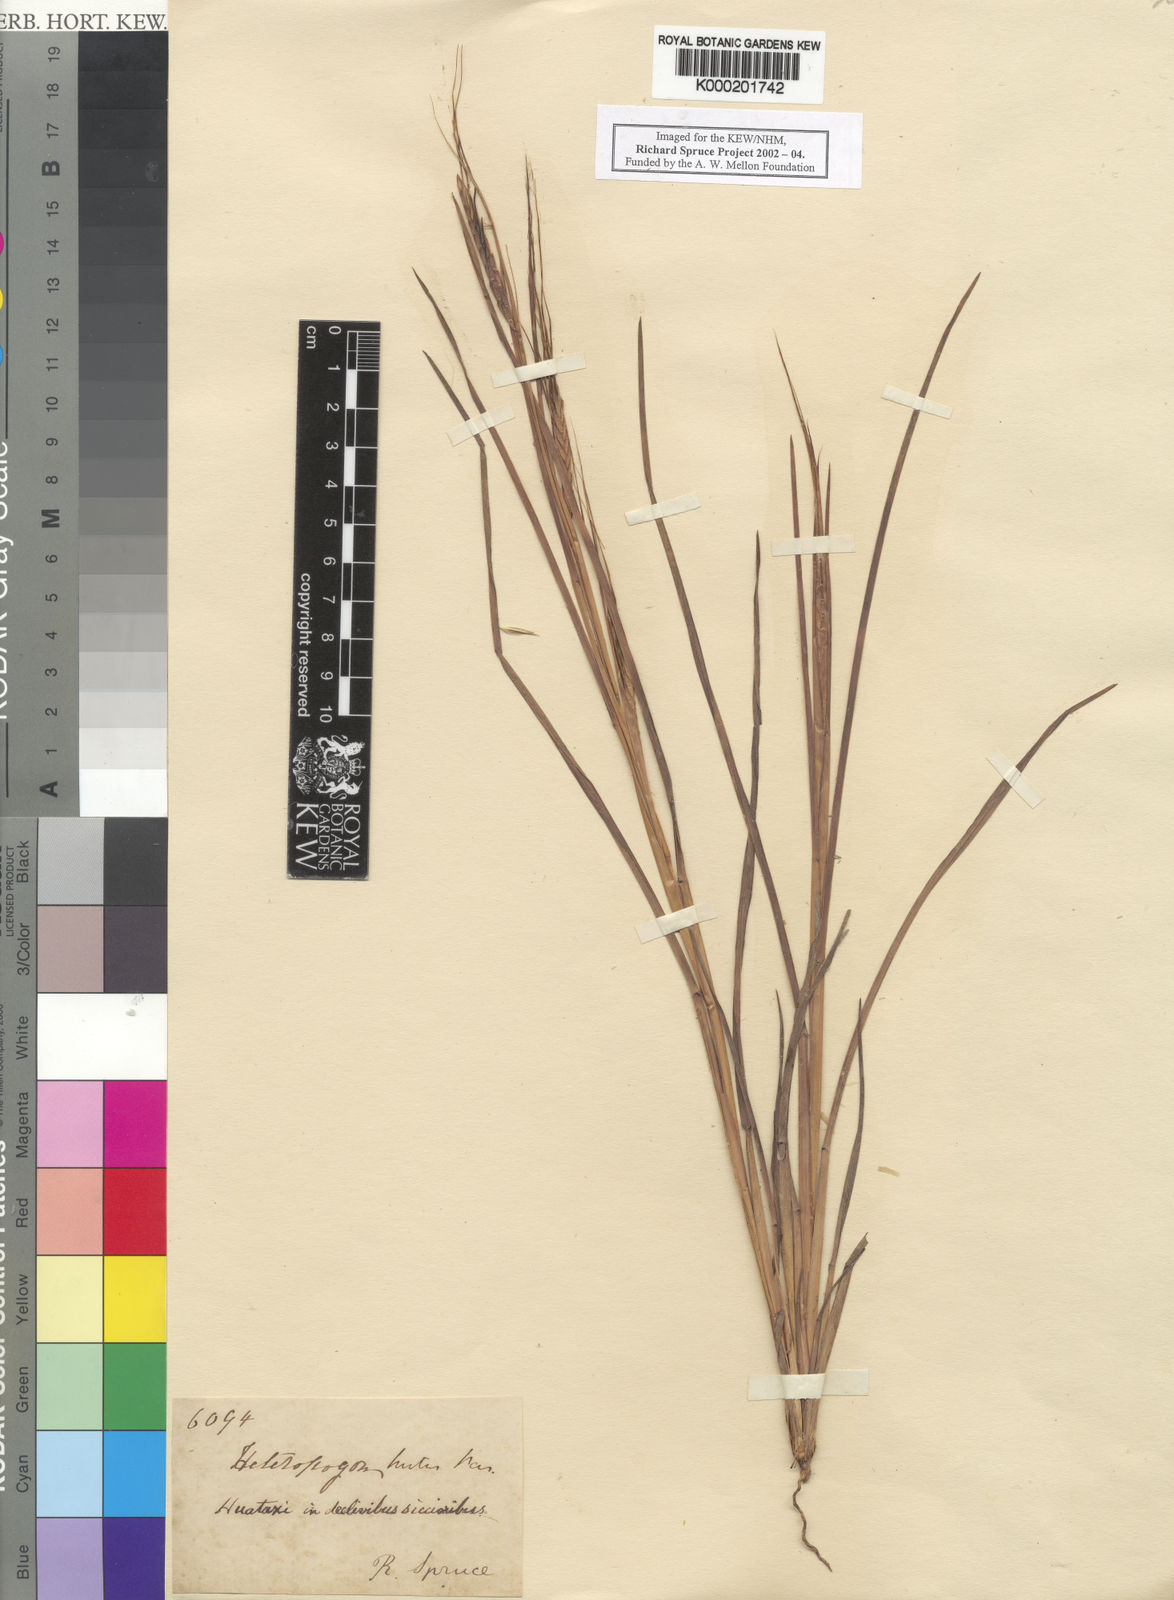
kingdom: Plantae
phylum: Tracheophyta
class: Liliopsida
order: Poales
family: Poaceae
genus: Heteropogon
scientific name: Heteropogon contortus
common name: Tanglehead
